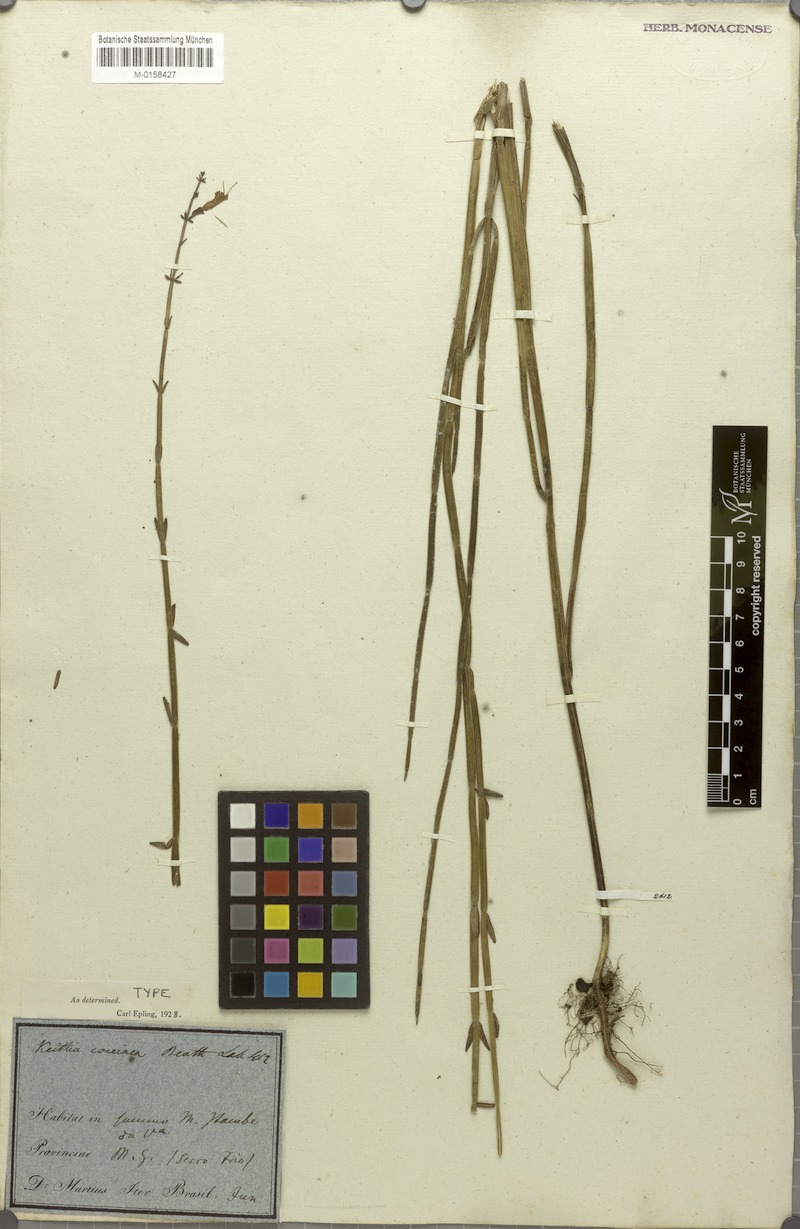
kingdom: Plantae
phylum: Tracheophyta
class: Magnoliopsida
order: Lamiales
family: Lamiaceae
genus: Rhabdocaulon
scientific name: Rhabdocaulon coccineum
